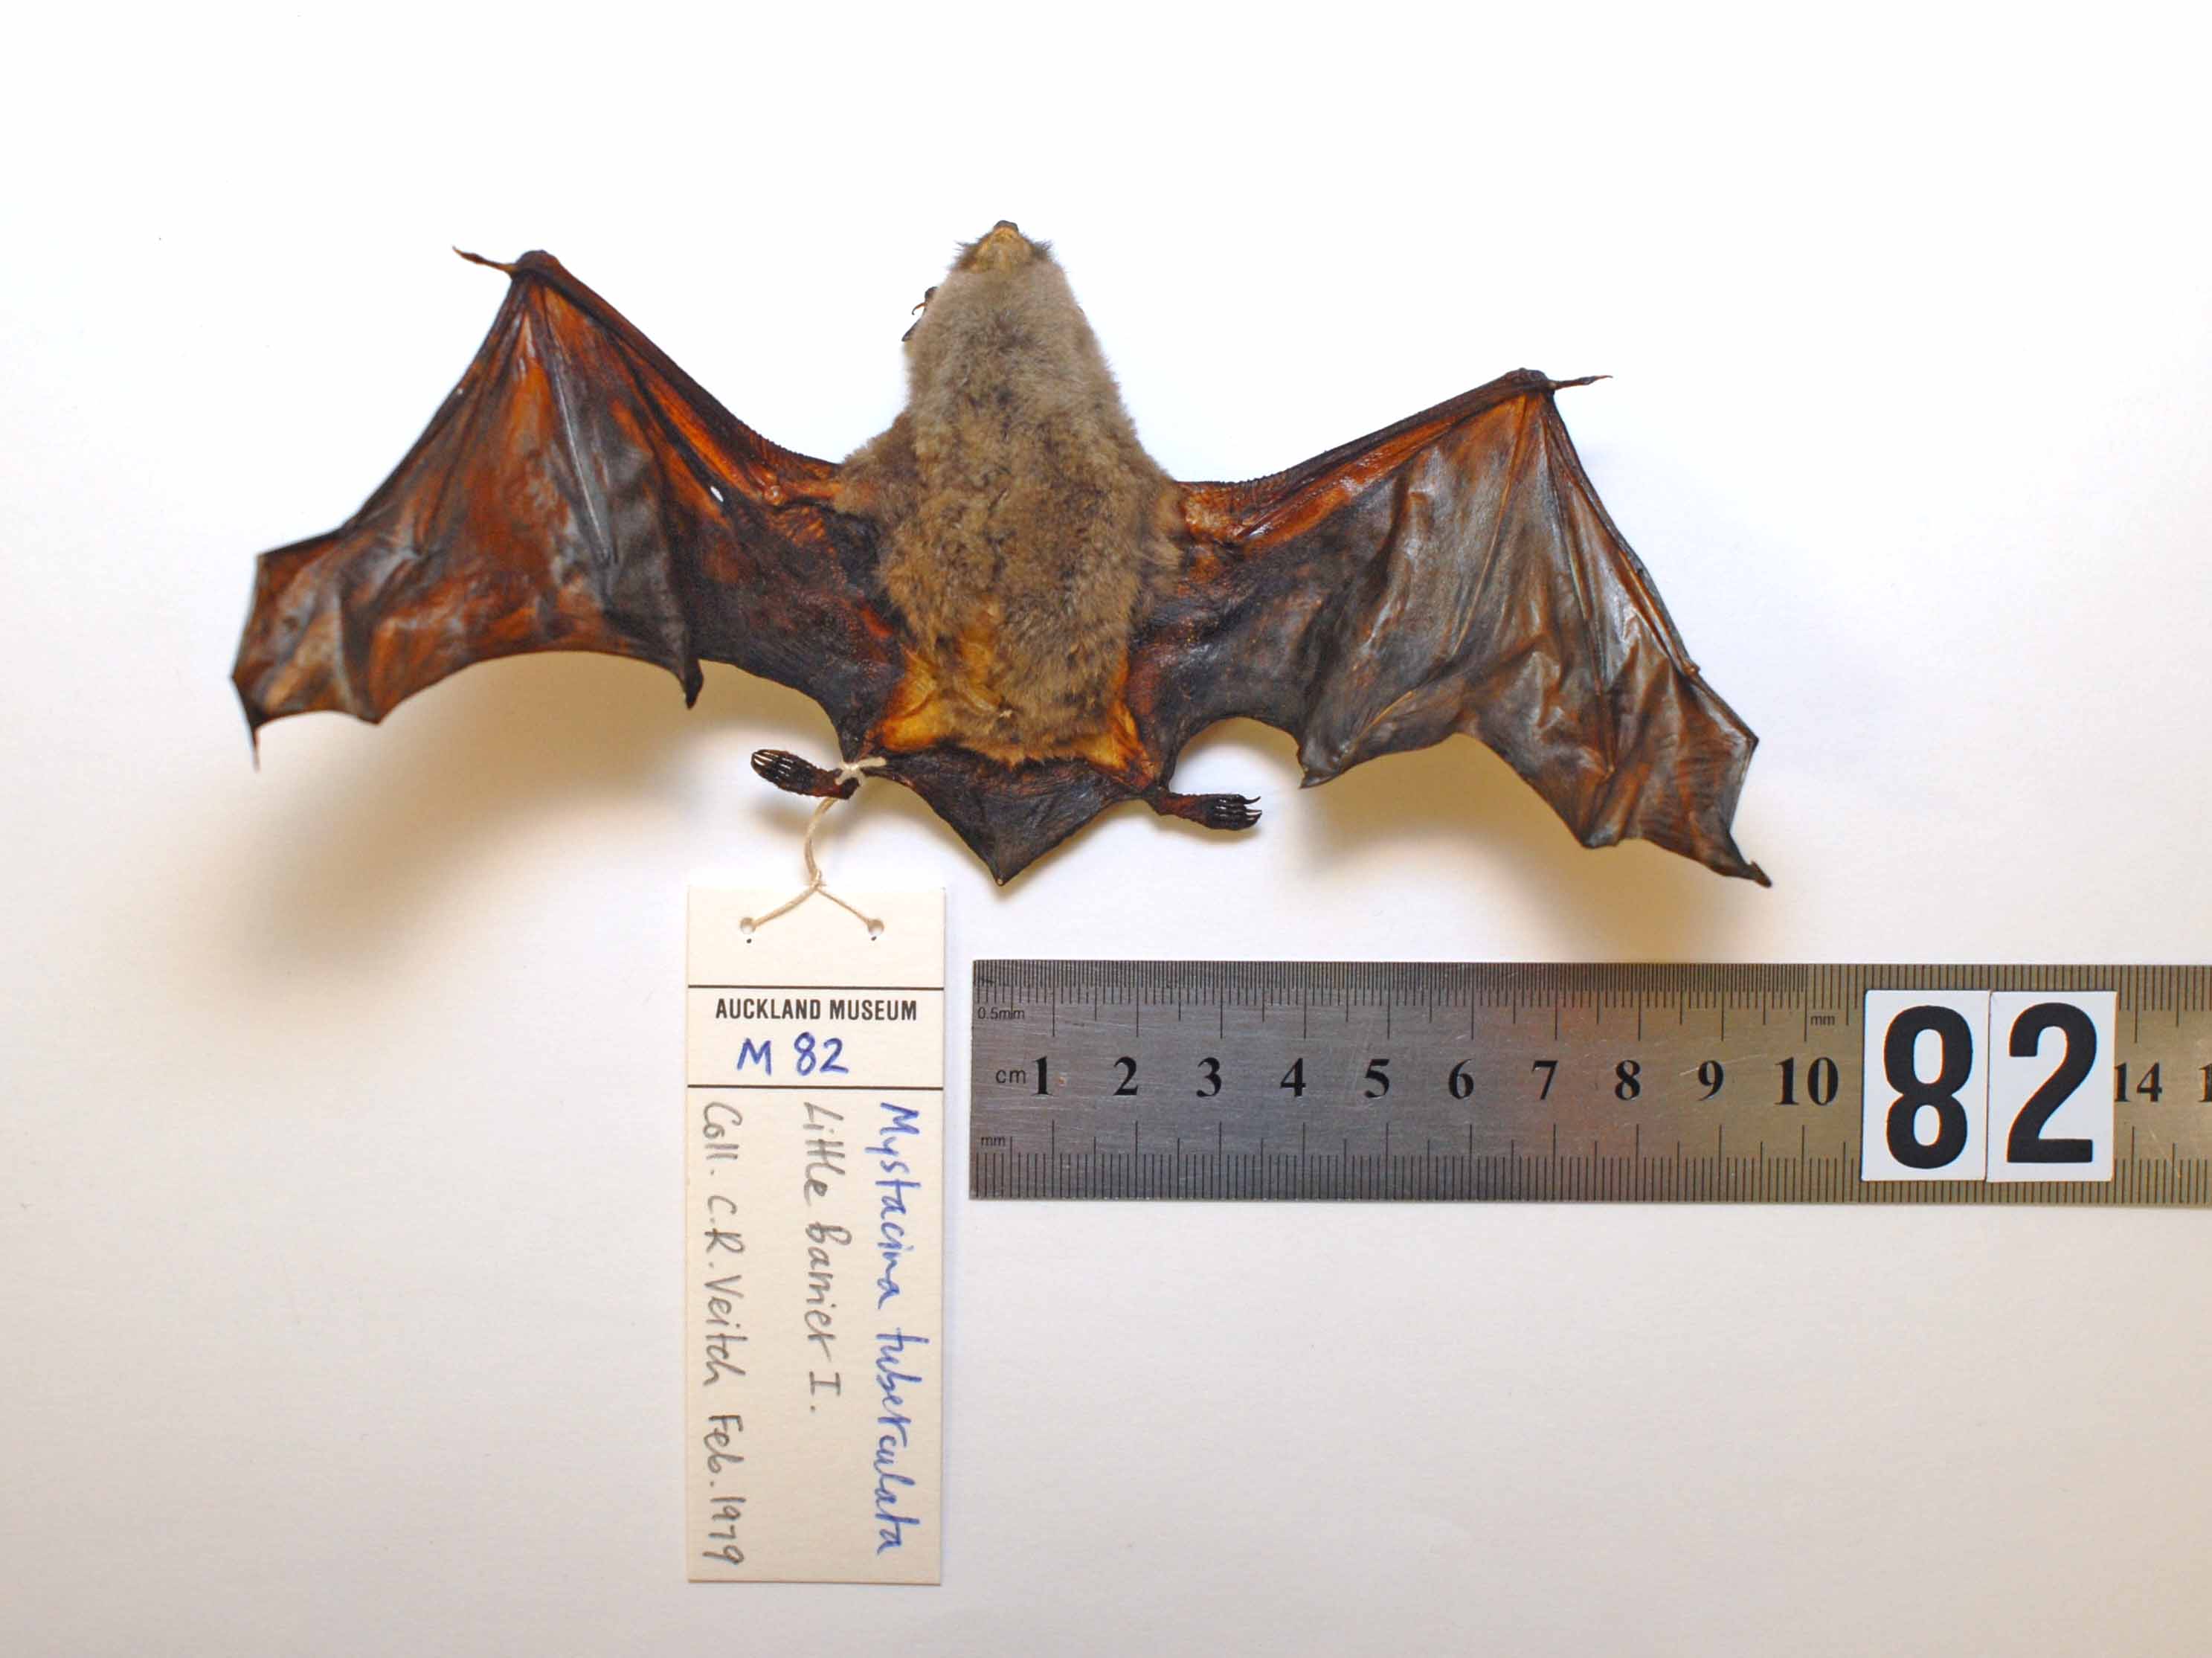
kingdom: Animalia
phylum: Chordata
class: Mammalia
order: Chiroptera
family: Mystacinidae
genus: Mystacina
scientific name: Mystacina tuberculata
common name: New zealand lesser short-tailed bat
